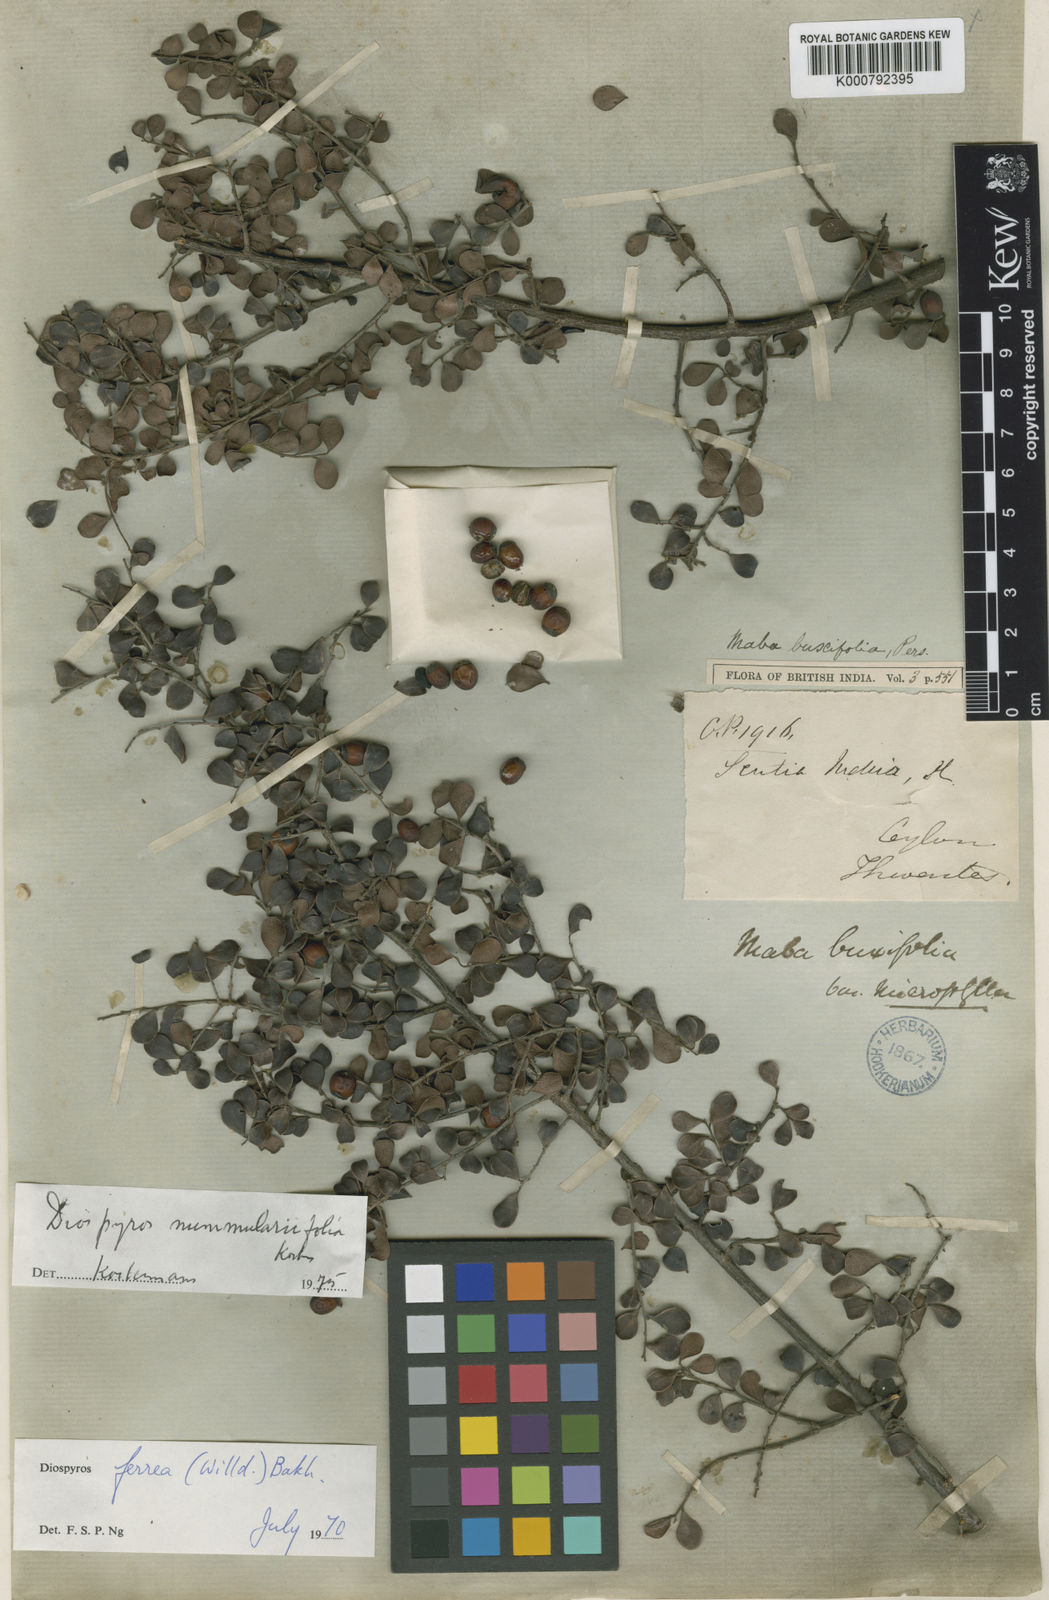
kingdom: Plantae
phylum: Tracheophyta
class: Magnoliopsida
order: Ericales
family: Ebenaceae
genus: Diospyros
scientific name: Diospyros nummulariifolia
